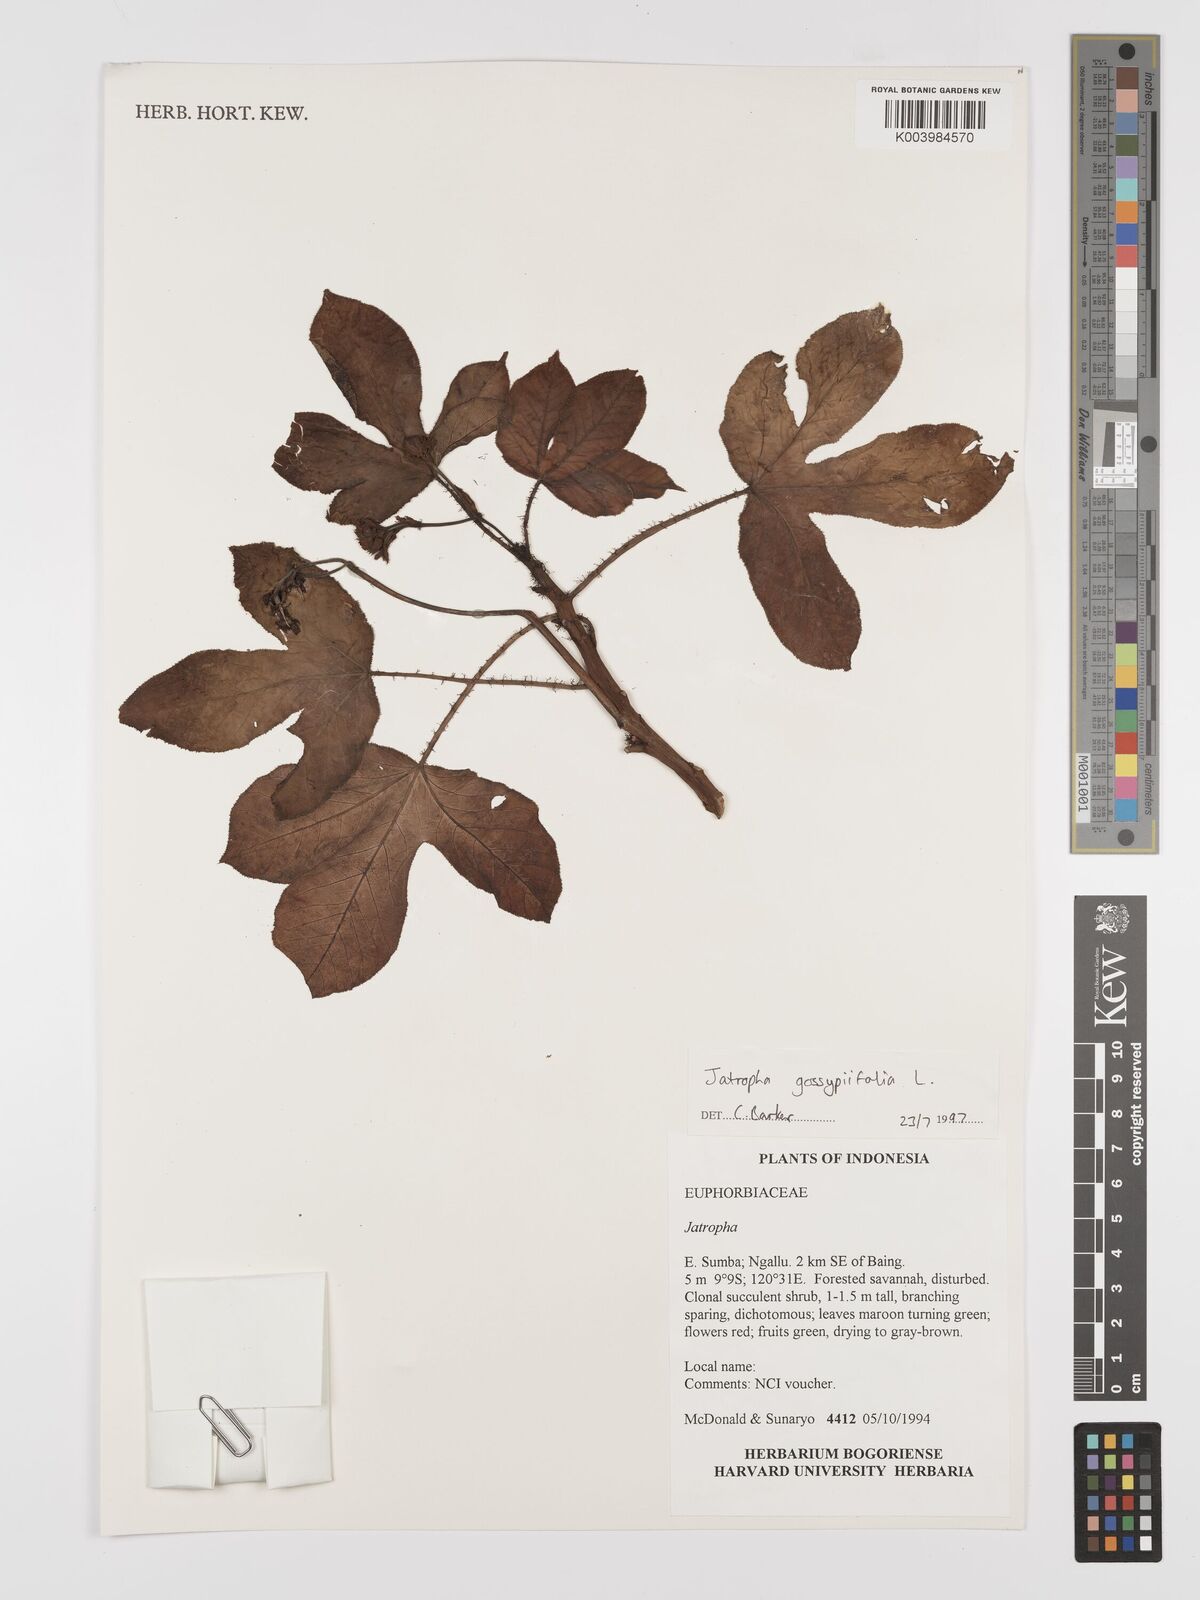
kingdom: Plantae
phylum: Tracheophyta
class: Magnoliopsida
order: Malpighiales
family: Euphorbiaceae
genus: Jatropha
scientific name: Jatropha gossypiifolia
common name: Bellyache bush
